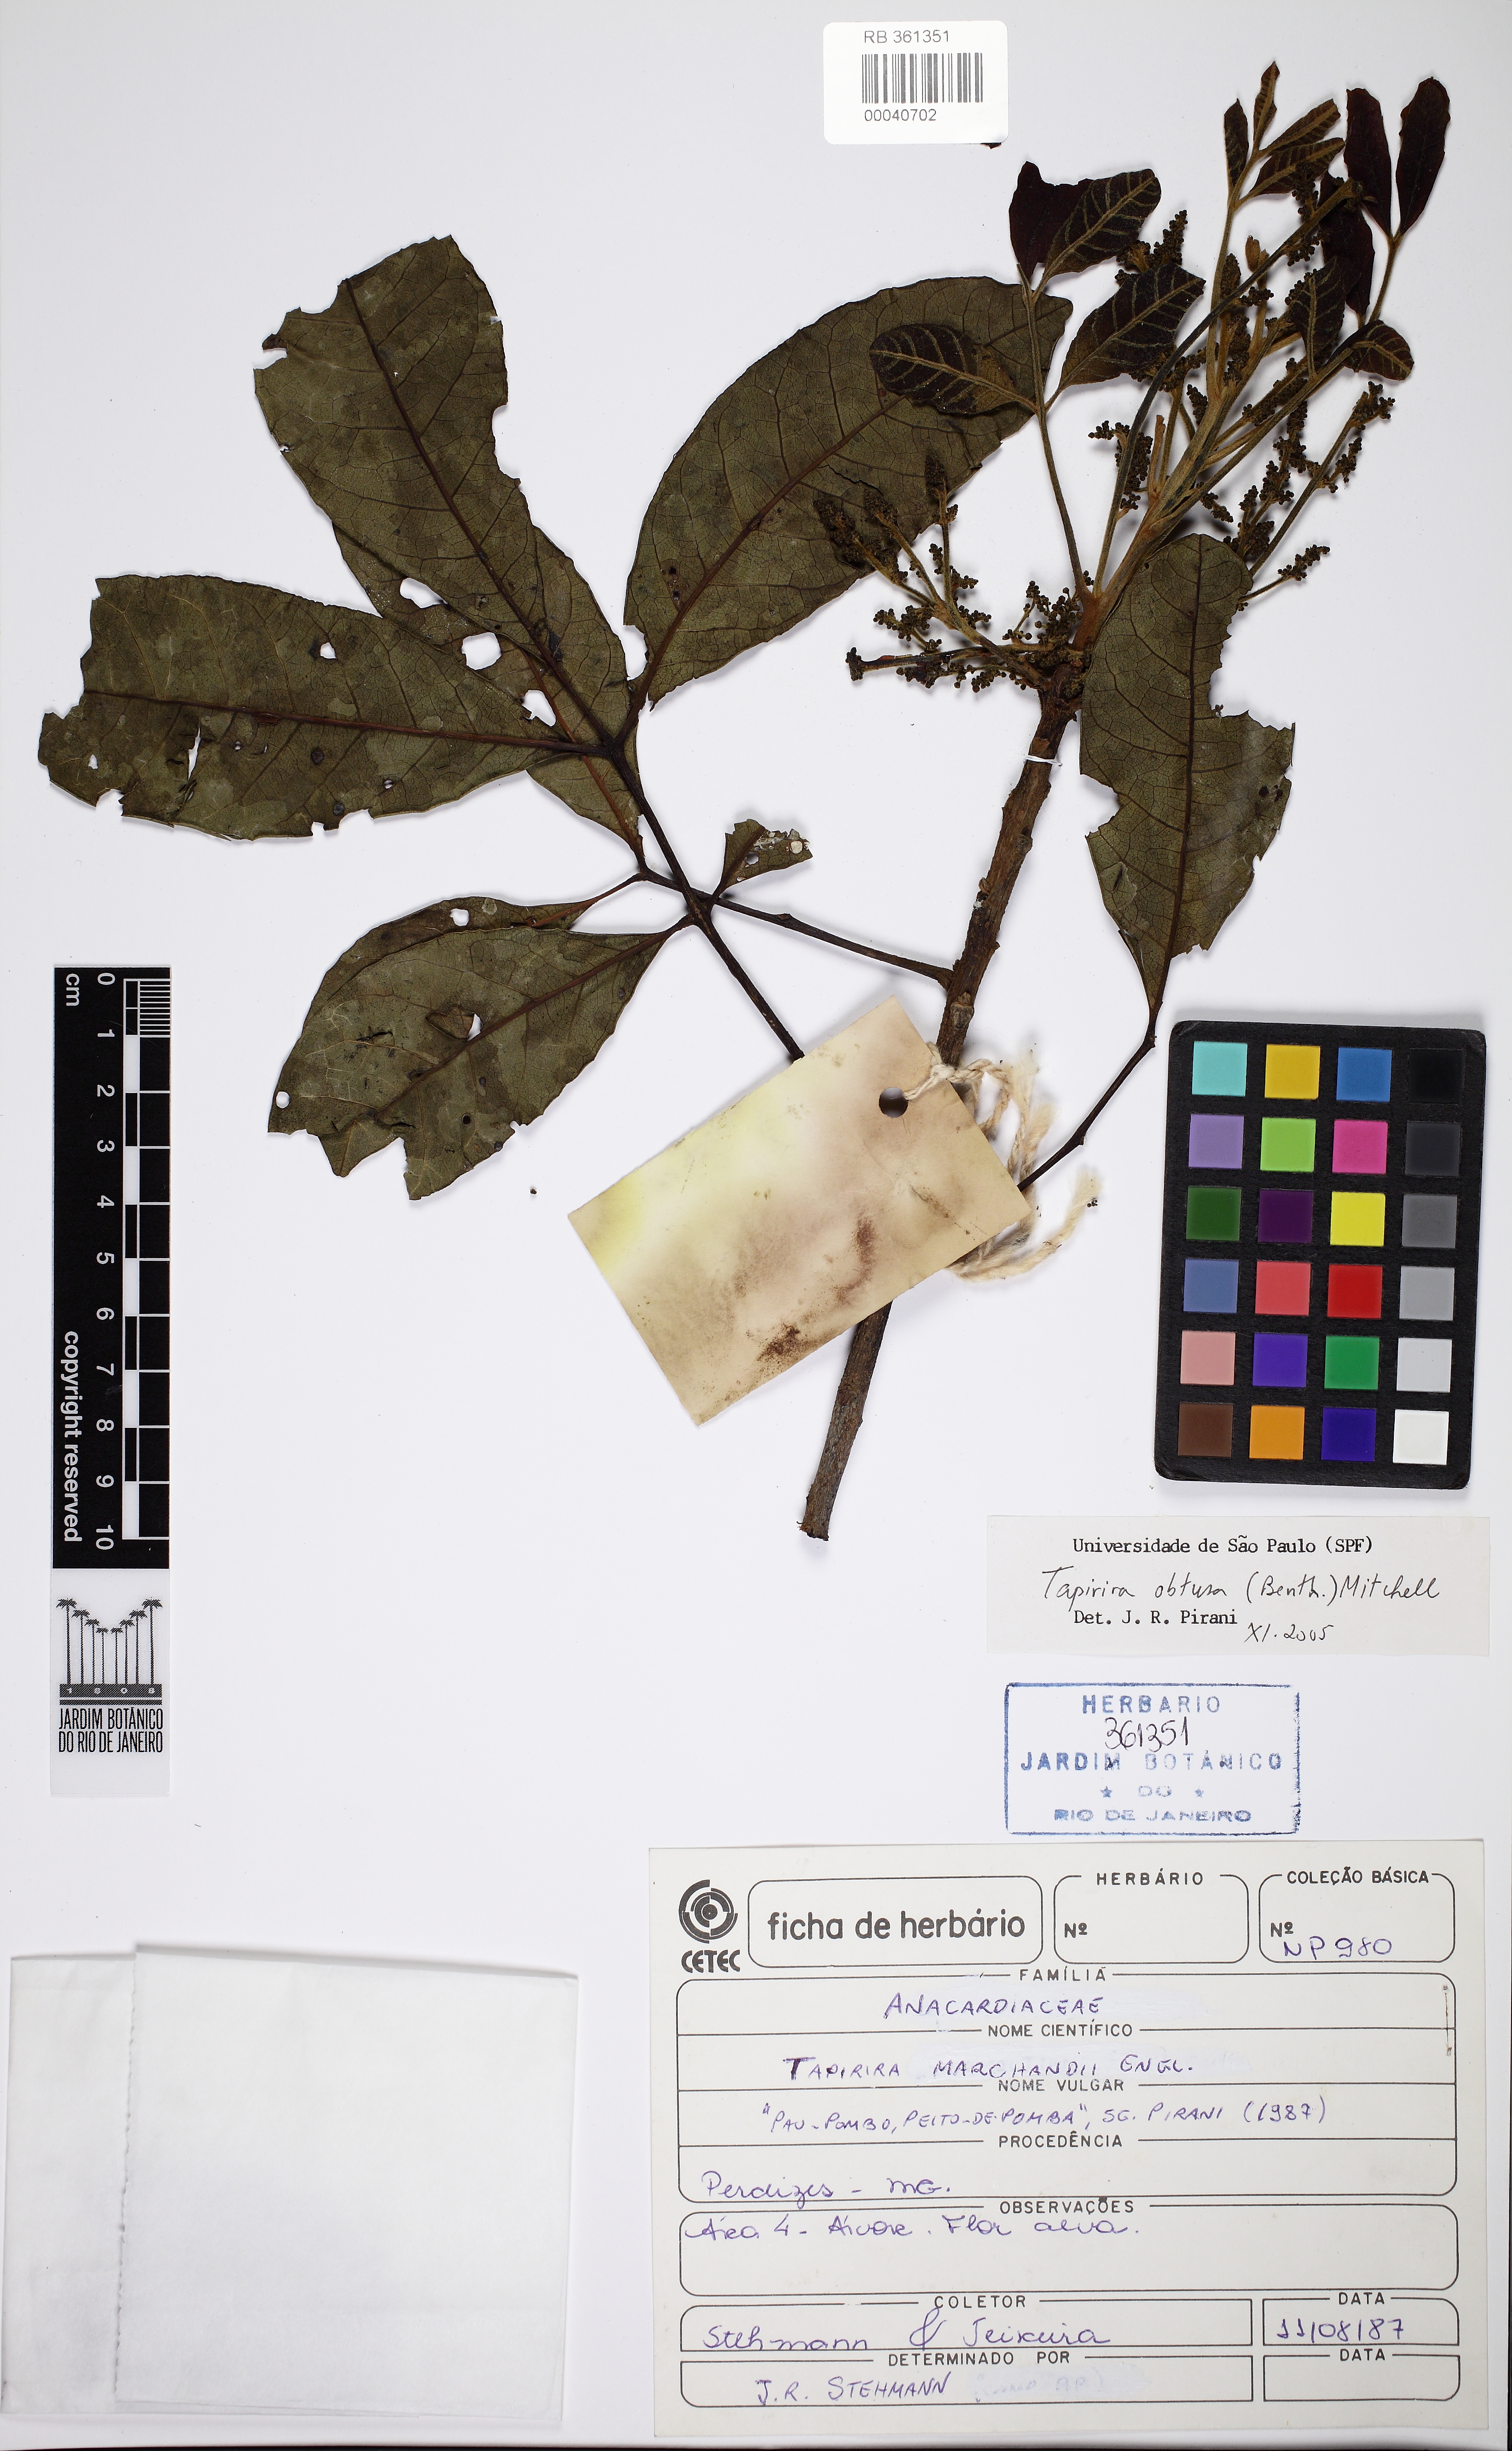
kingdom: Plantae
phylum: Tracheophyta
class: Magnoliopsida
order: Sapindales
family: Anacardiaceae
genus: Tapirira
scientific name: Tapirira obtusa
